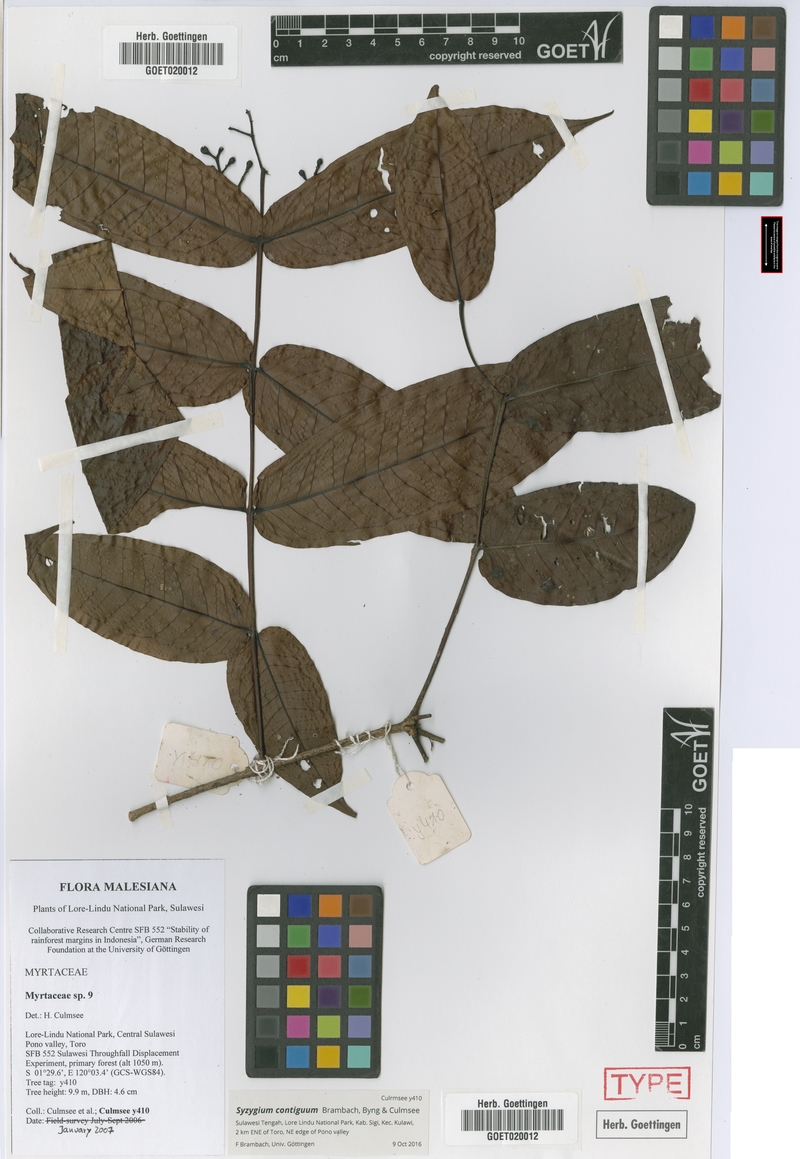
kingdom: Plantae
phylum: Tracheophyta
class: Magnoliopsida
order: Myrtales
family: Myrtaceae
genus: Syzygium
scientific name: Syzygium contiguum
